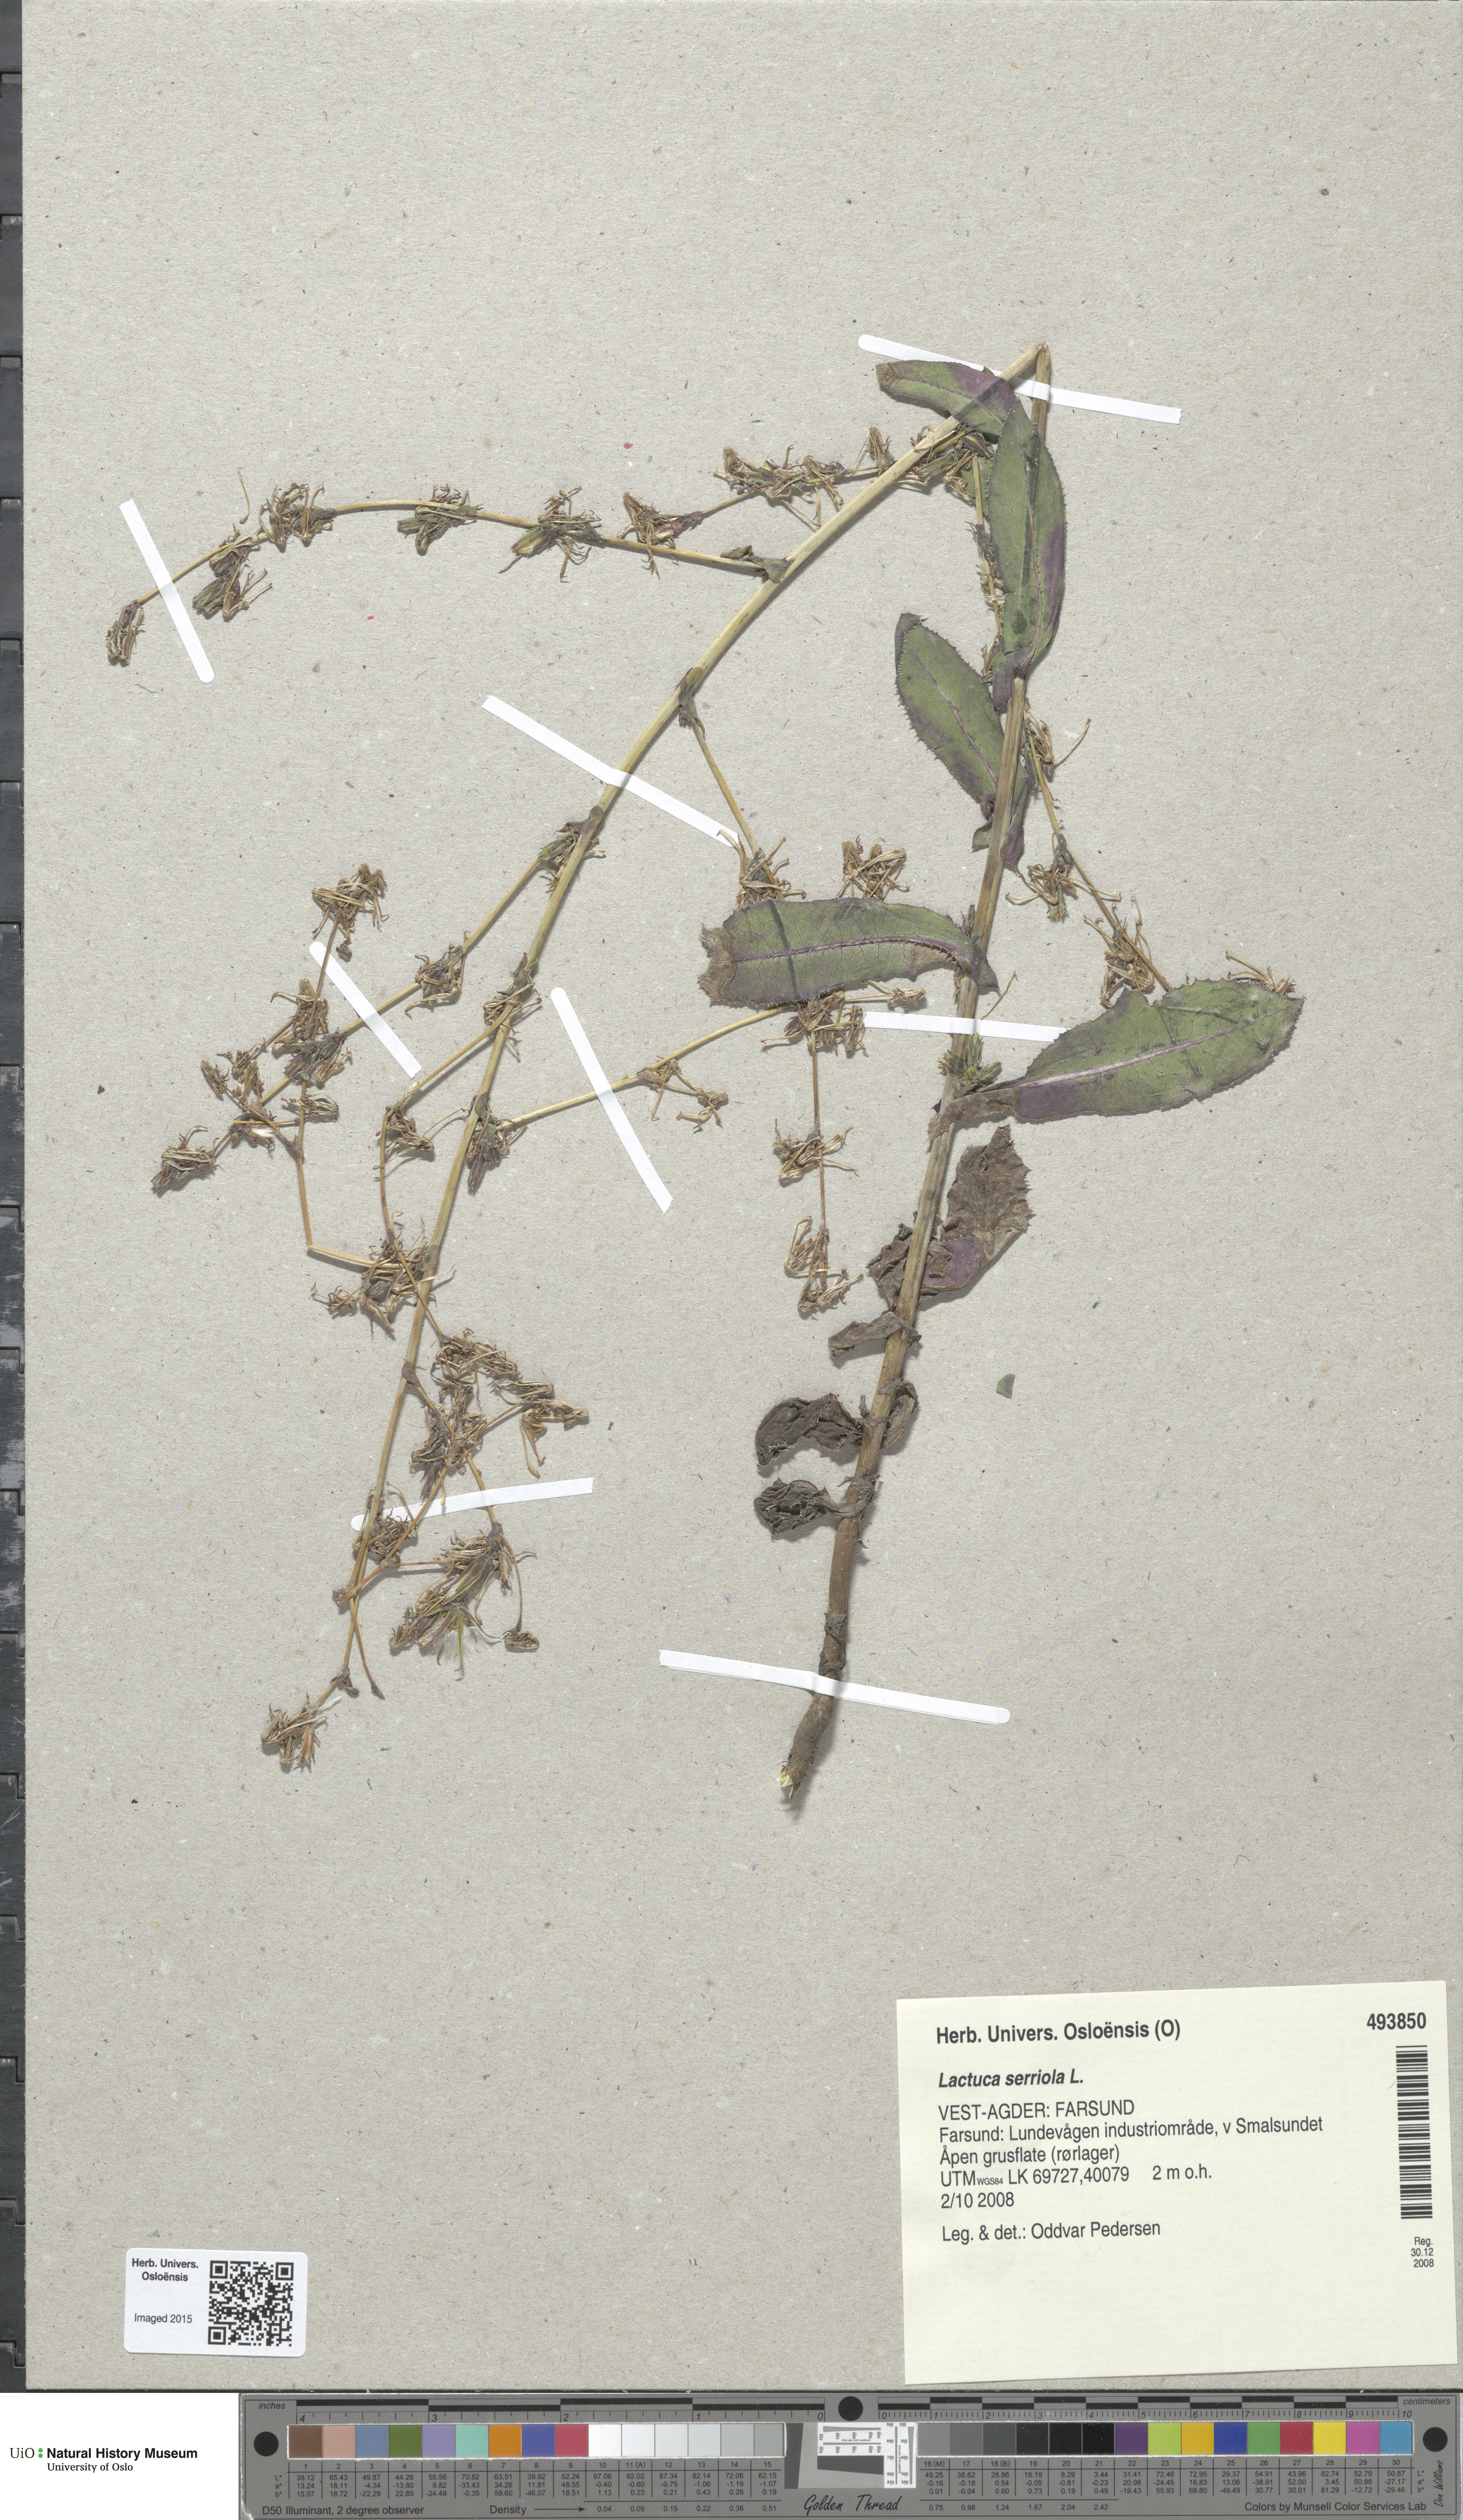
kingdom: Plantae
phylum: Tracheophyta
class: Magnoliopsida
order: Asterales
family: Asteraceae
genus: Lactuca
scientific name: Lactuca serriola
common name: Prickly lettuce
